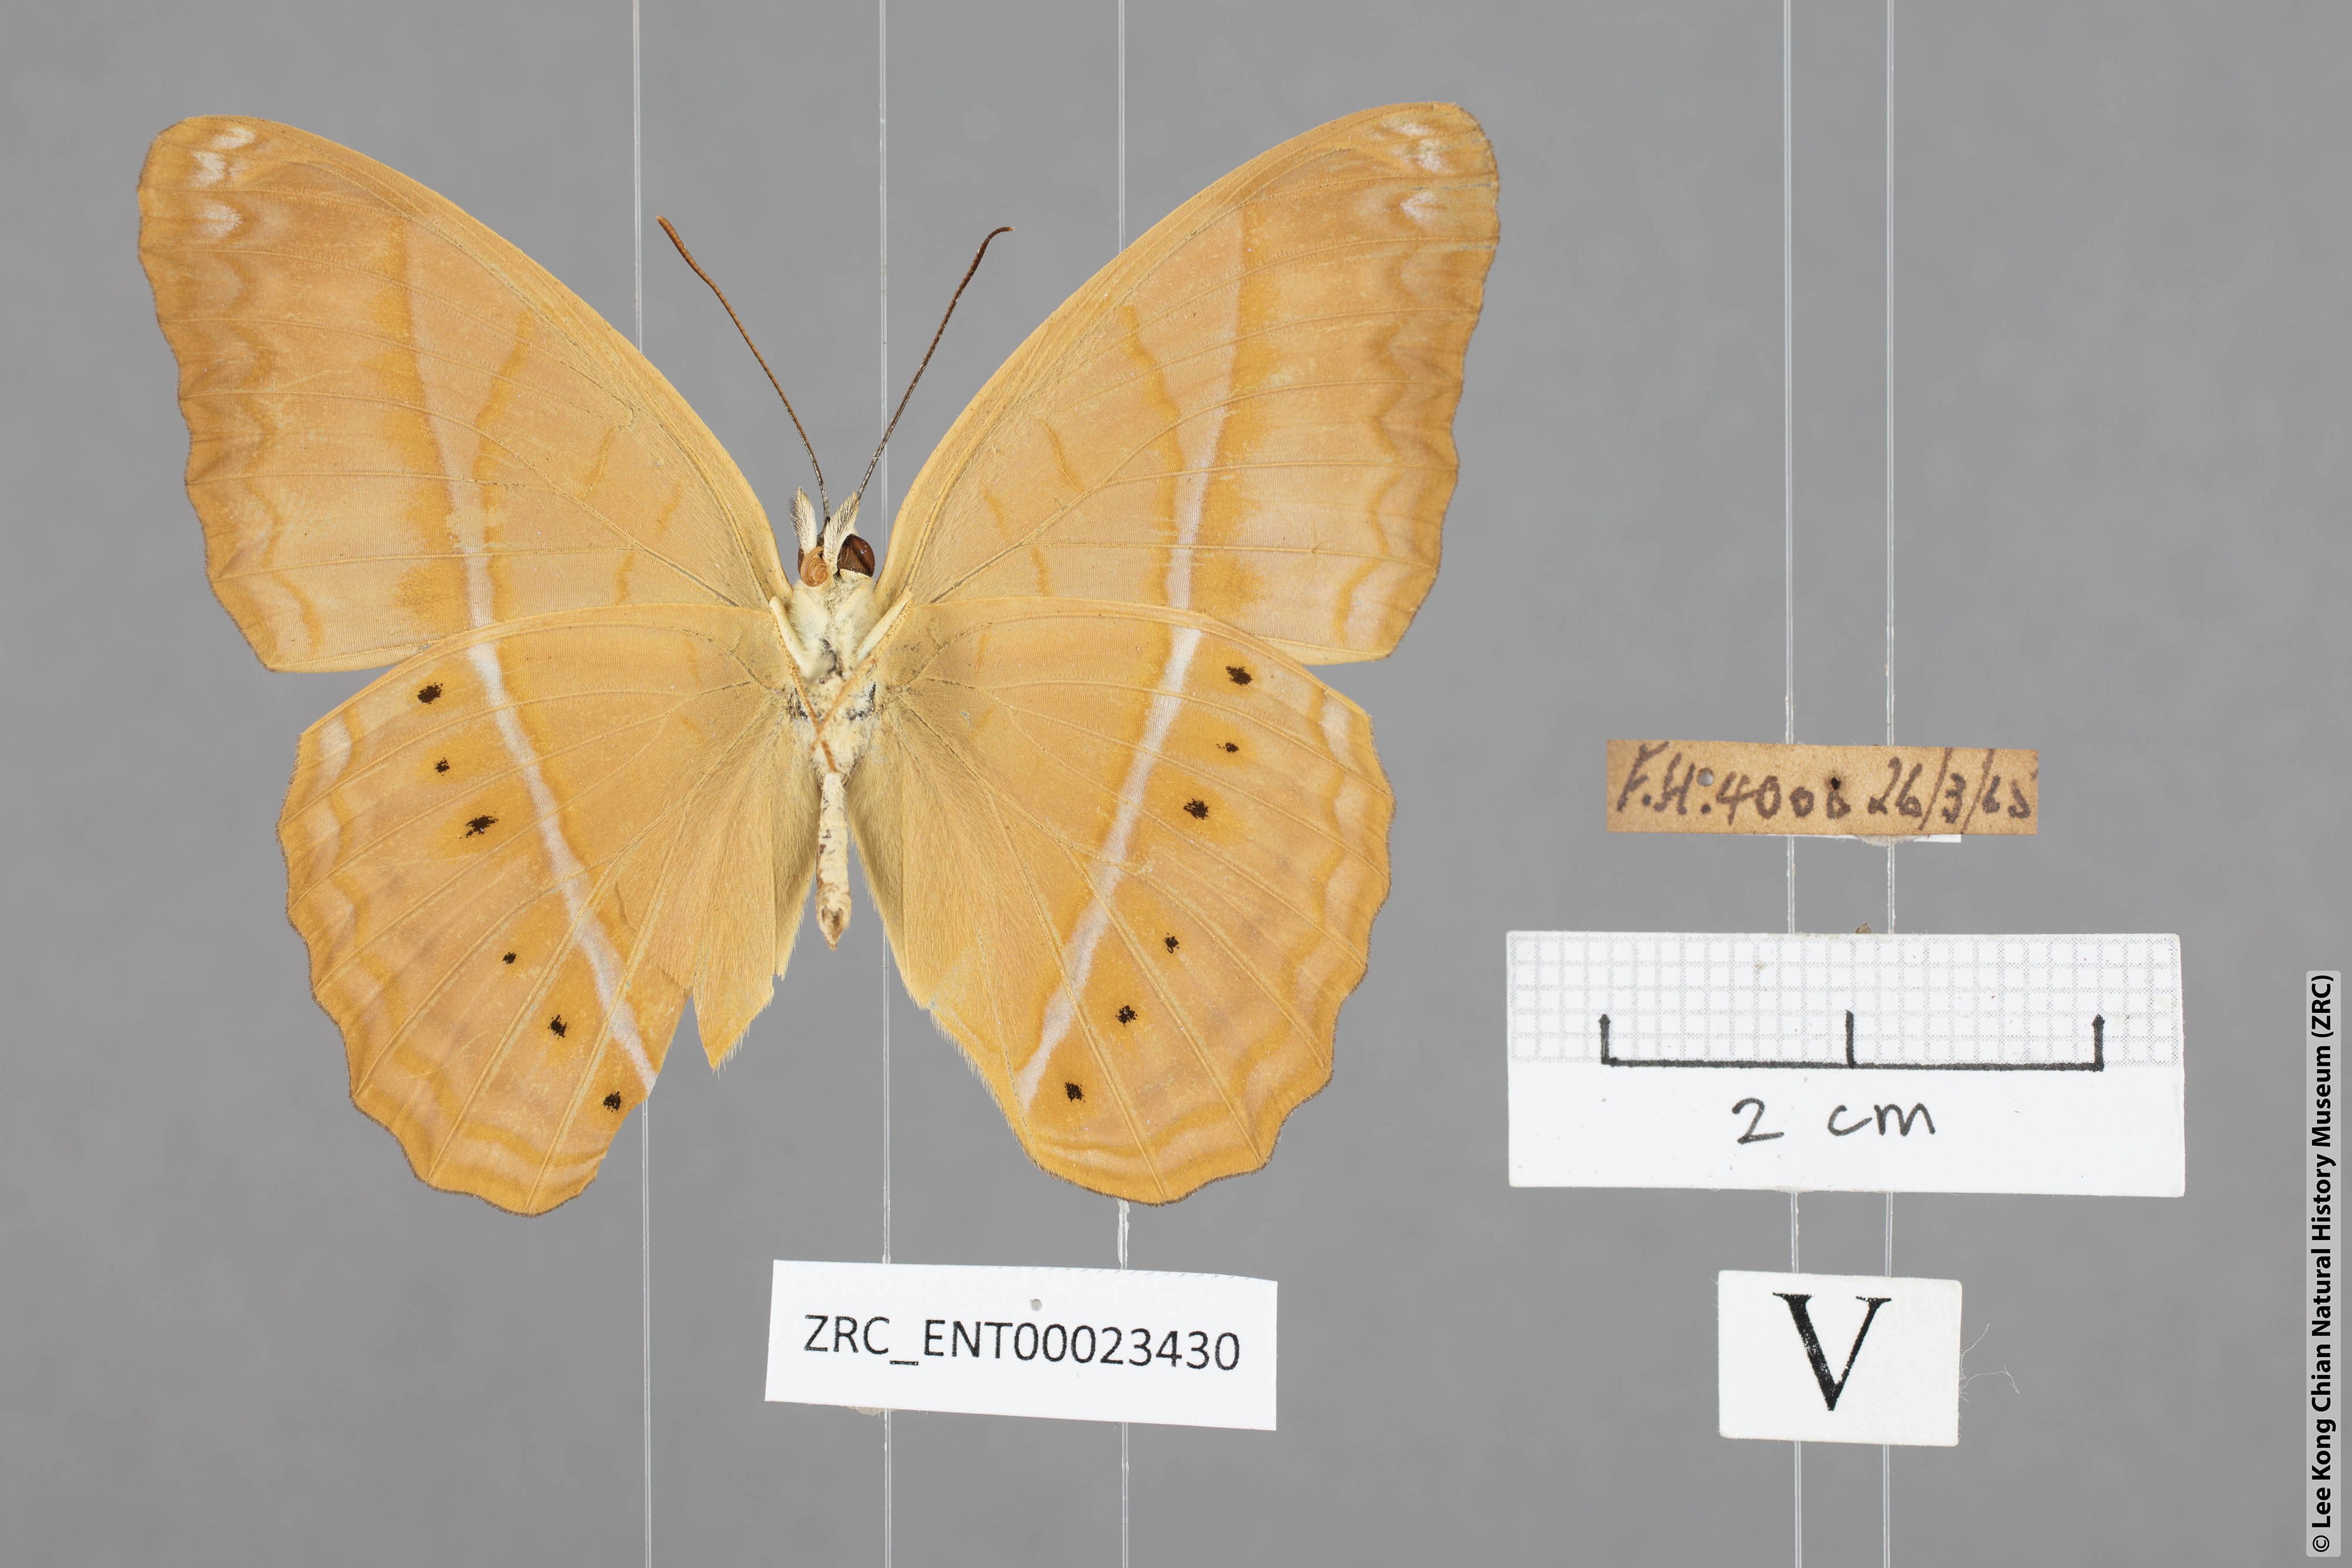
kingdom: Animalia
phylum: Arthropoda
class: Insecta
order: Lepidoptera
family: Nymphalidae
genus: Cirrochroa
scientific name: Cirrochroa malaya
